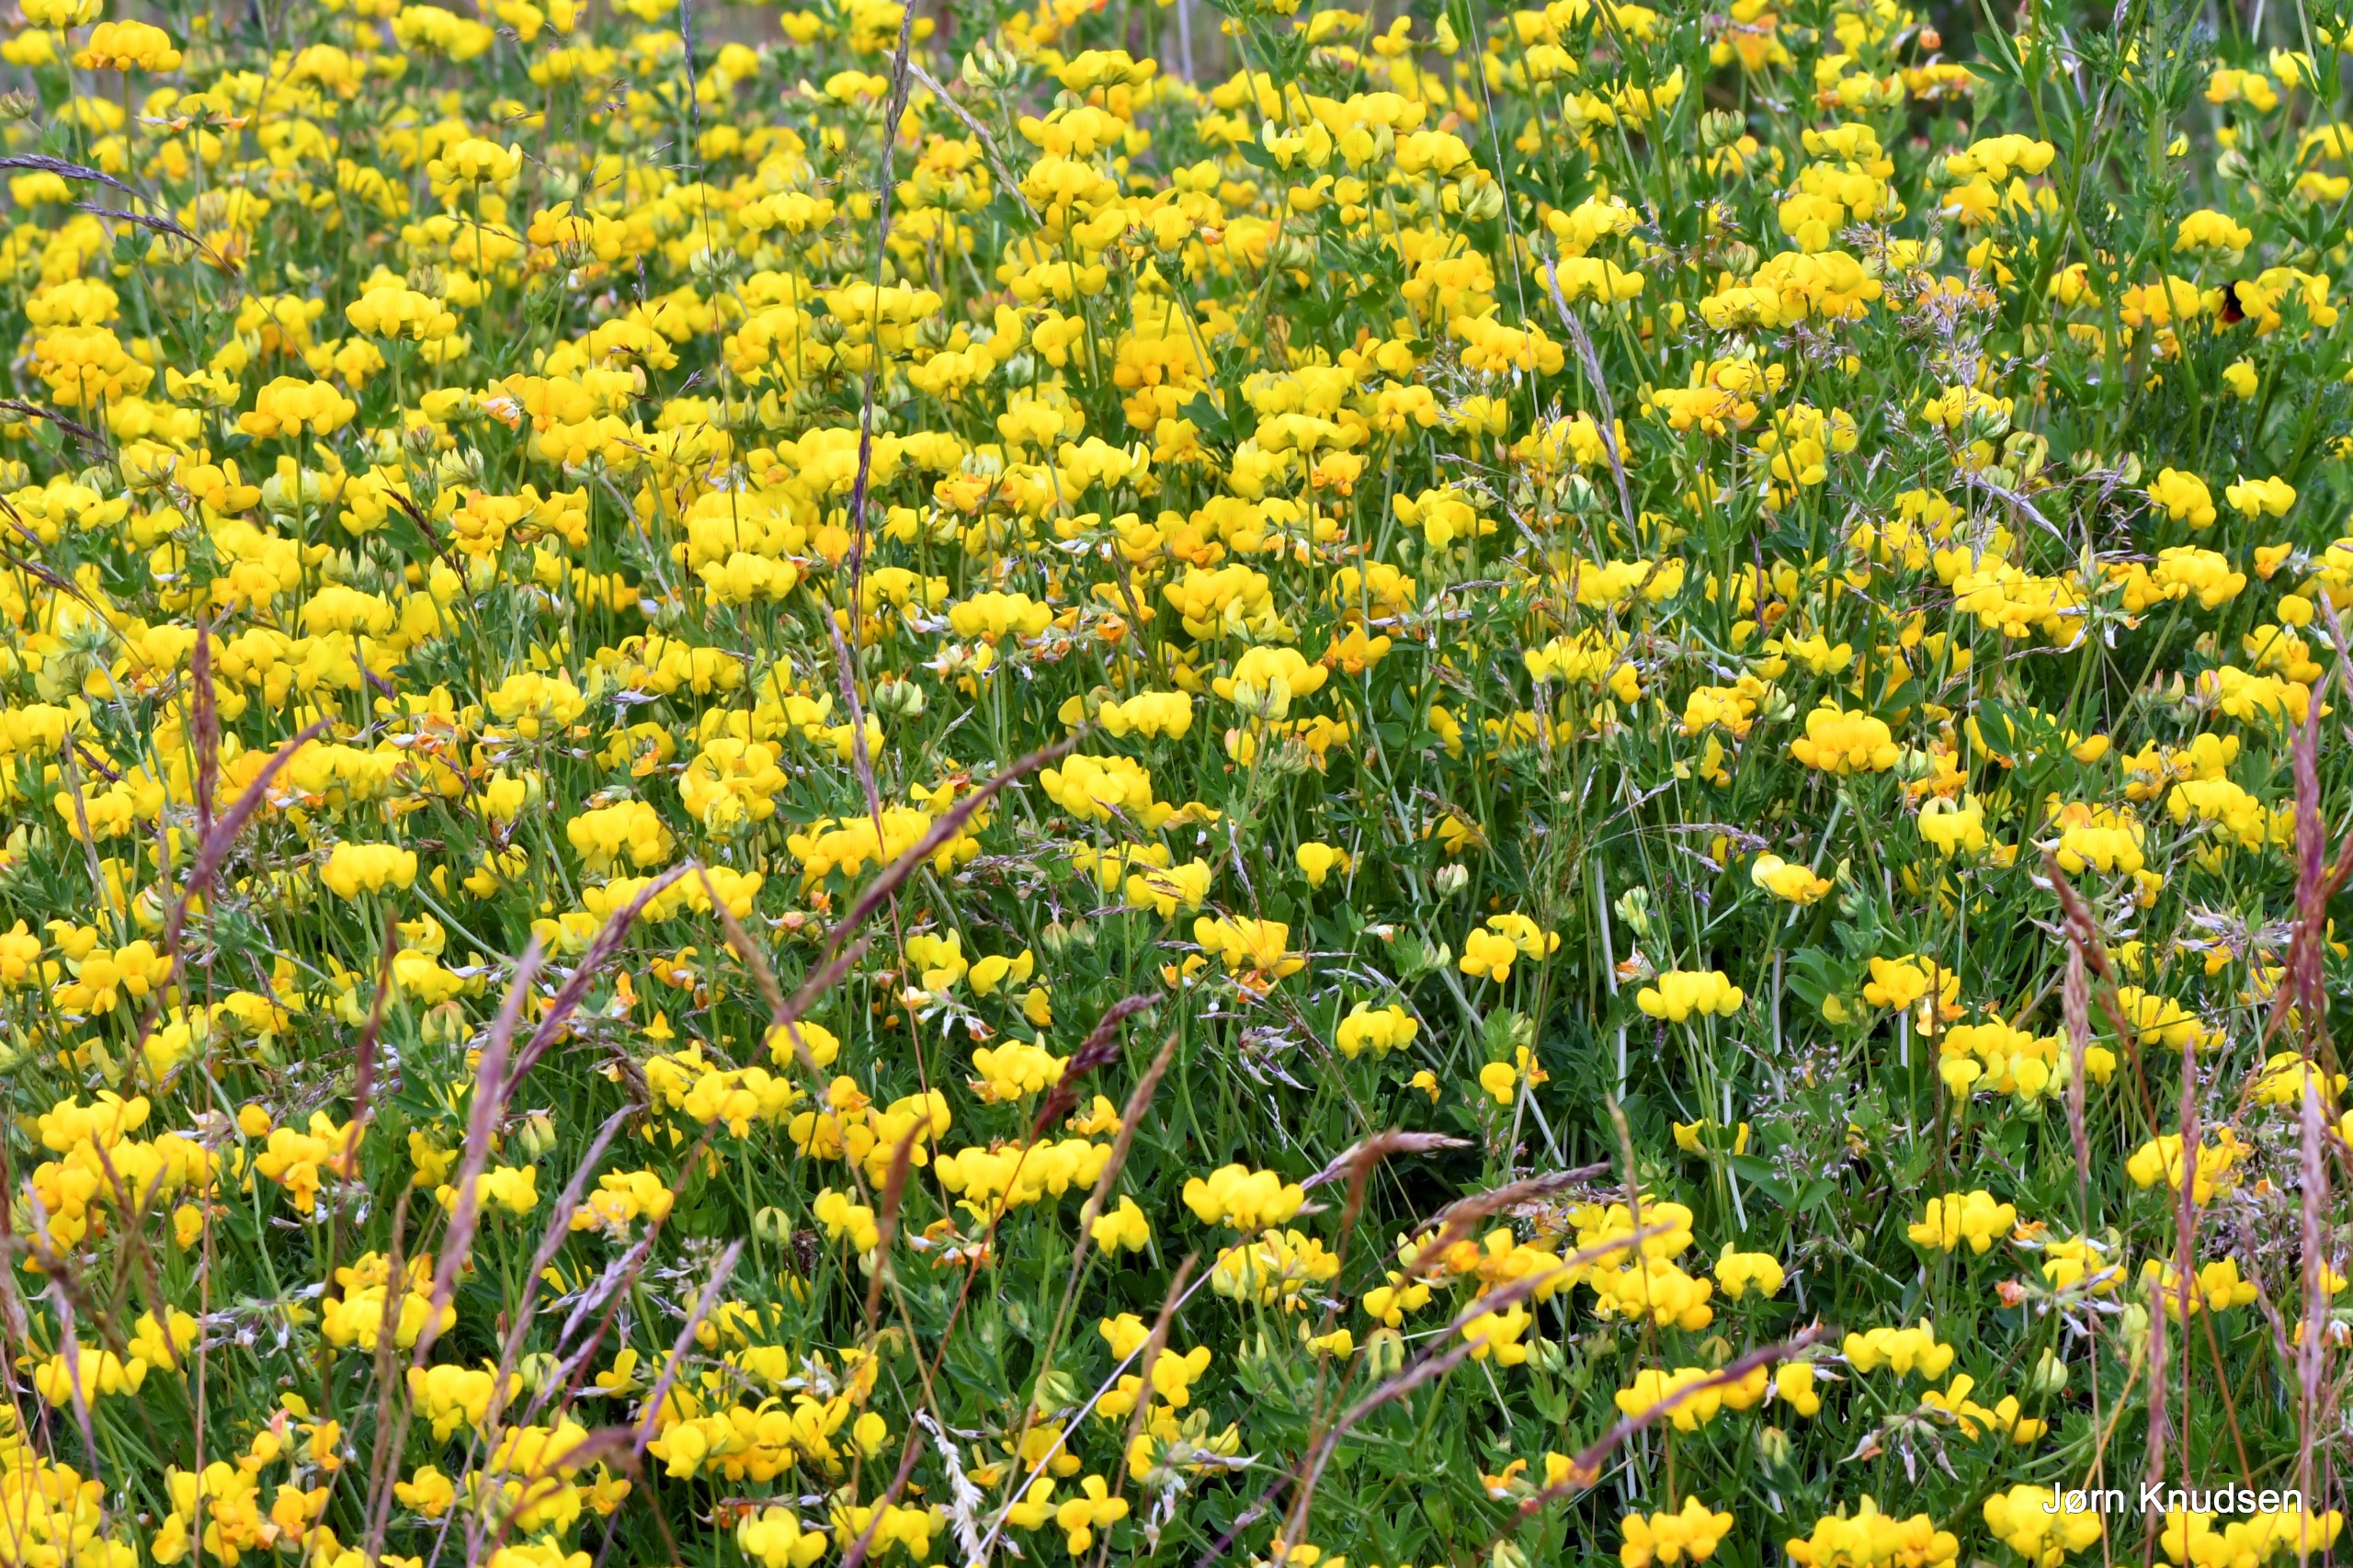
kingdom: Plantae
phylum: Tracheophyta
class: Magnoliopsida
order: Fabales
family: Fabaceae
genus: Lotus
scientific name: Lotus corniculatus
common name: Almindelig kællingetand
